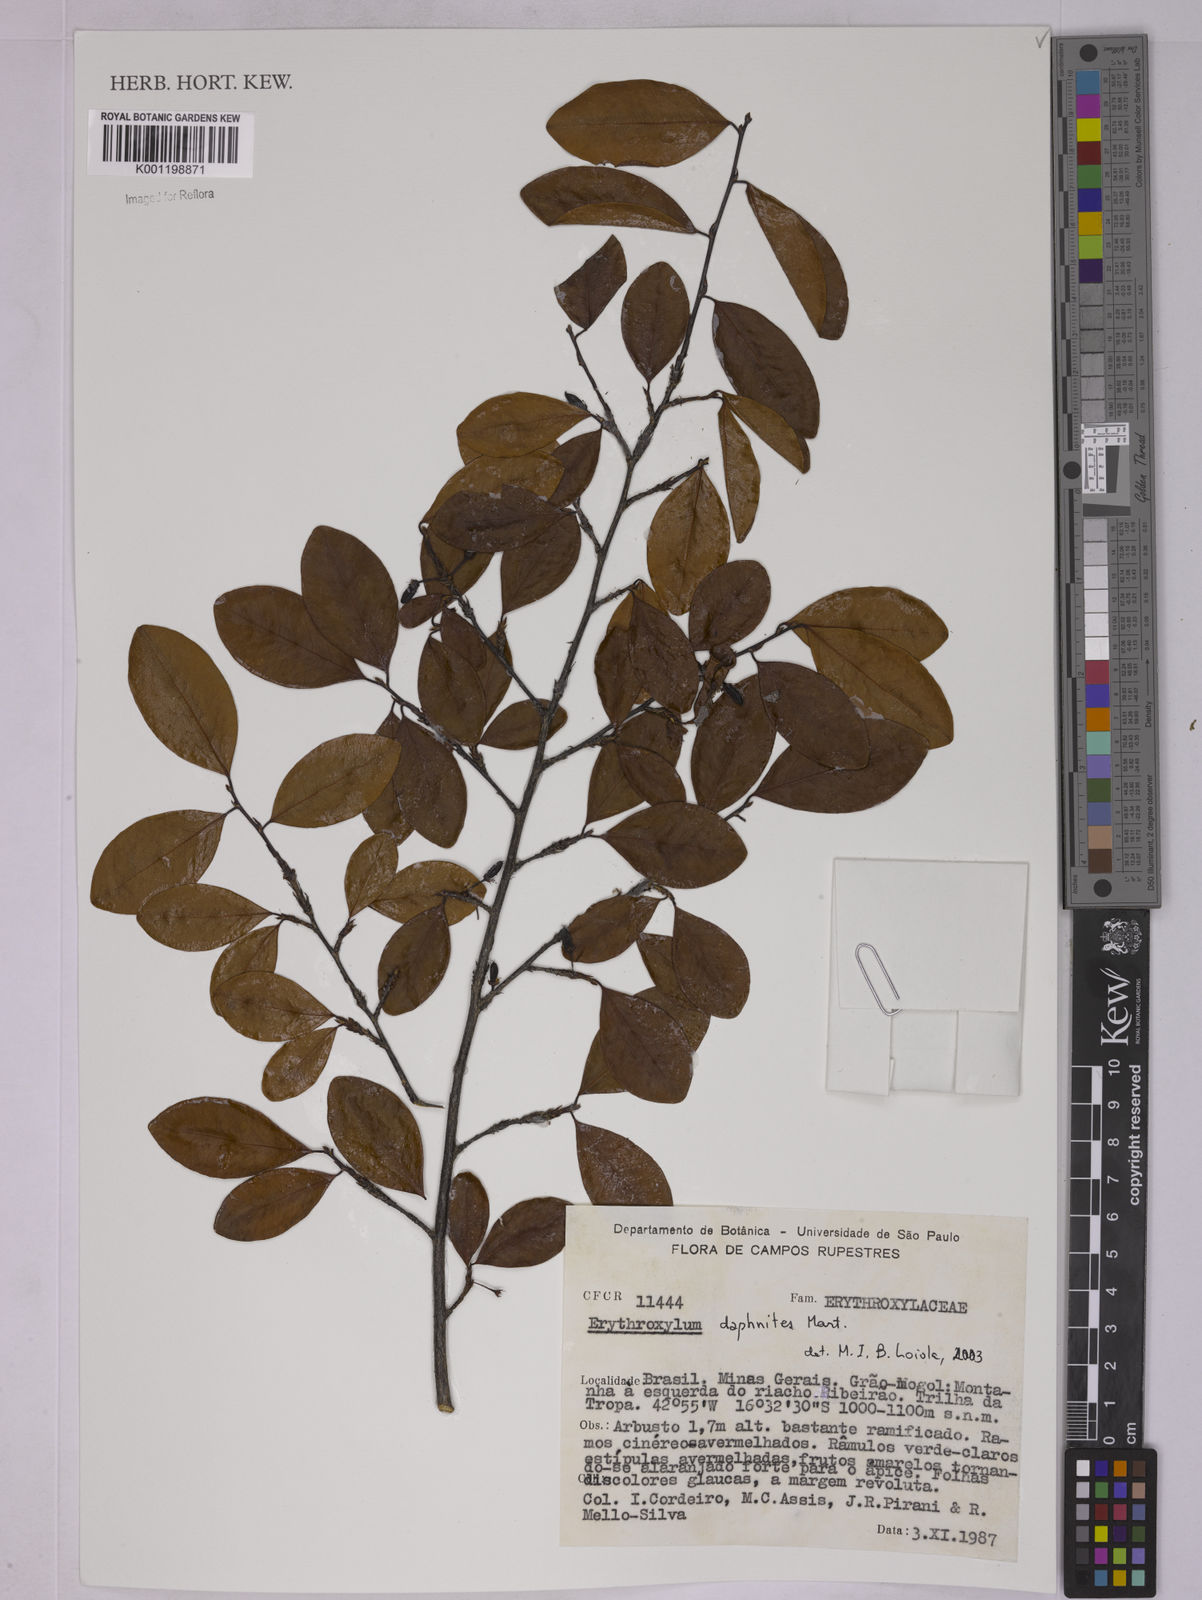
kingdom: Plantae
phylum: Tracheophyta
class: Magnoliopsida
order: Malpighiales
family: Erythroxylaceae
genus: Erythroxylum
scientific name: Erythroxylum daphnites
